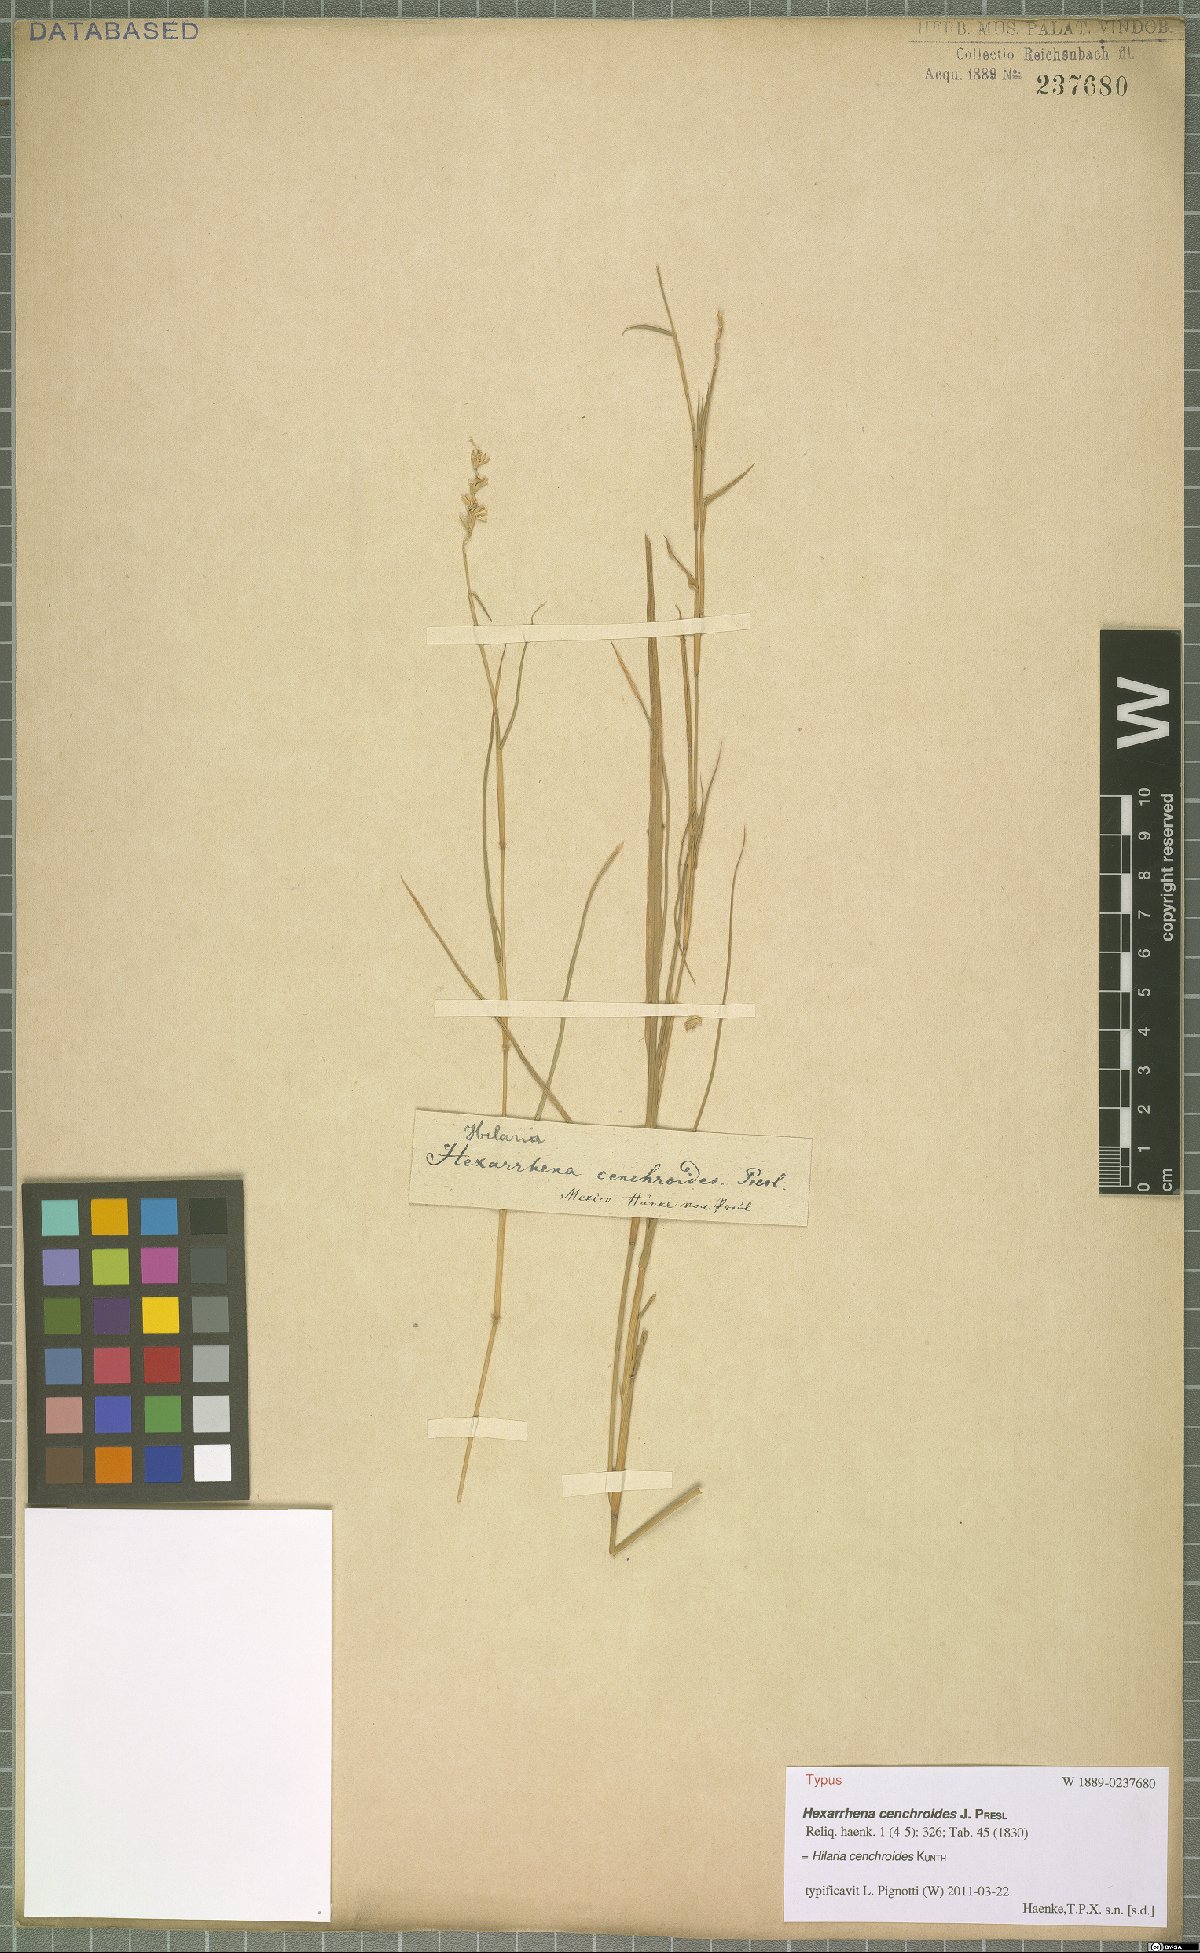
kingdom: Plantae
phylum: Tracheophyta
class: Liliopsida
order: Poales
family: Poaceae
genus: Hilaria
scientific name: Hilaria cenchroides
